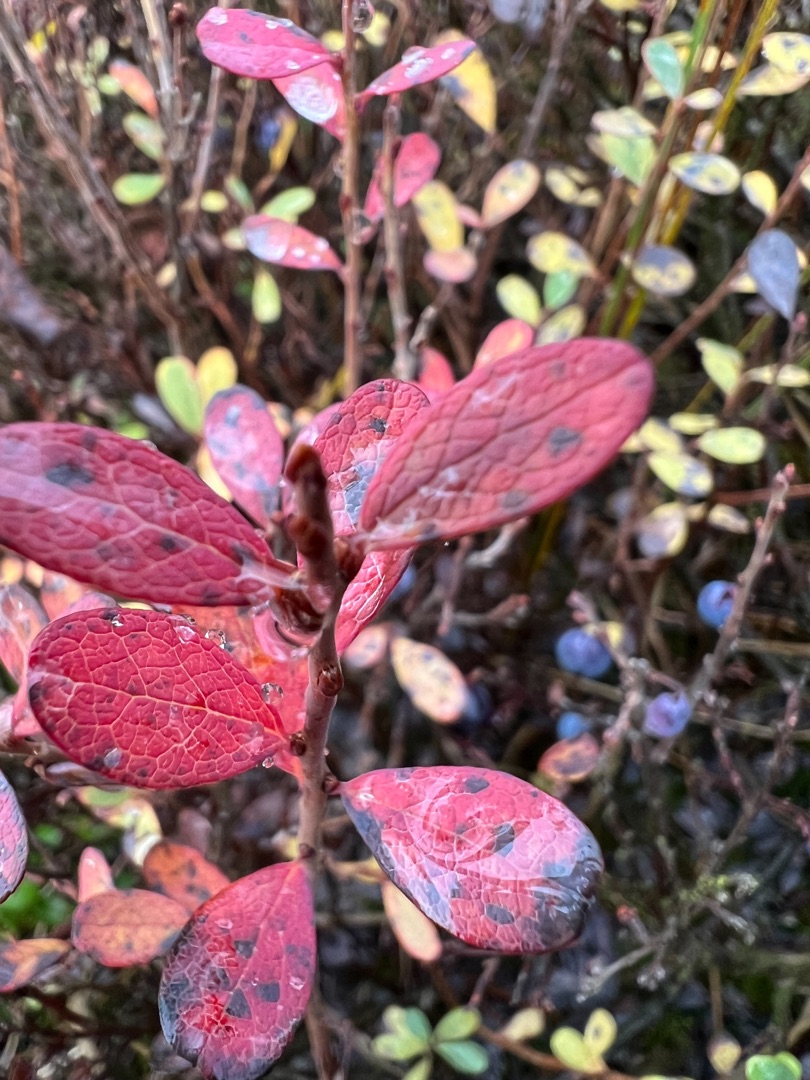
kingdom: Plantae
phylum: Tracheophyta
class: Magnoliopsida
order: Ericales
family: Ericaceae
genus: Vaccinium
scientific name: Vaccinium uliginosum
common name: Mose-bølle
